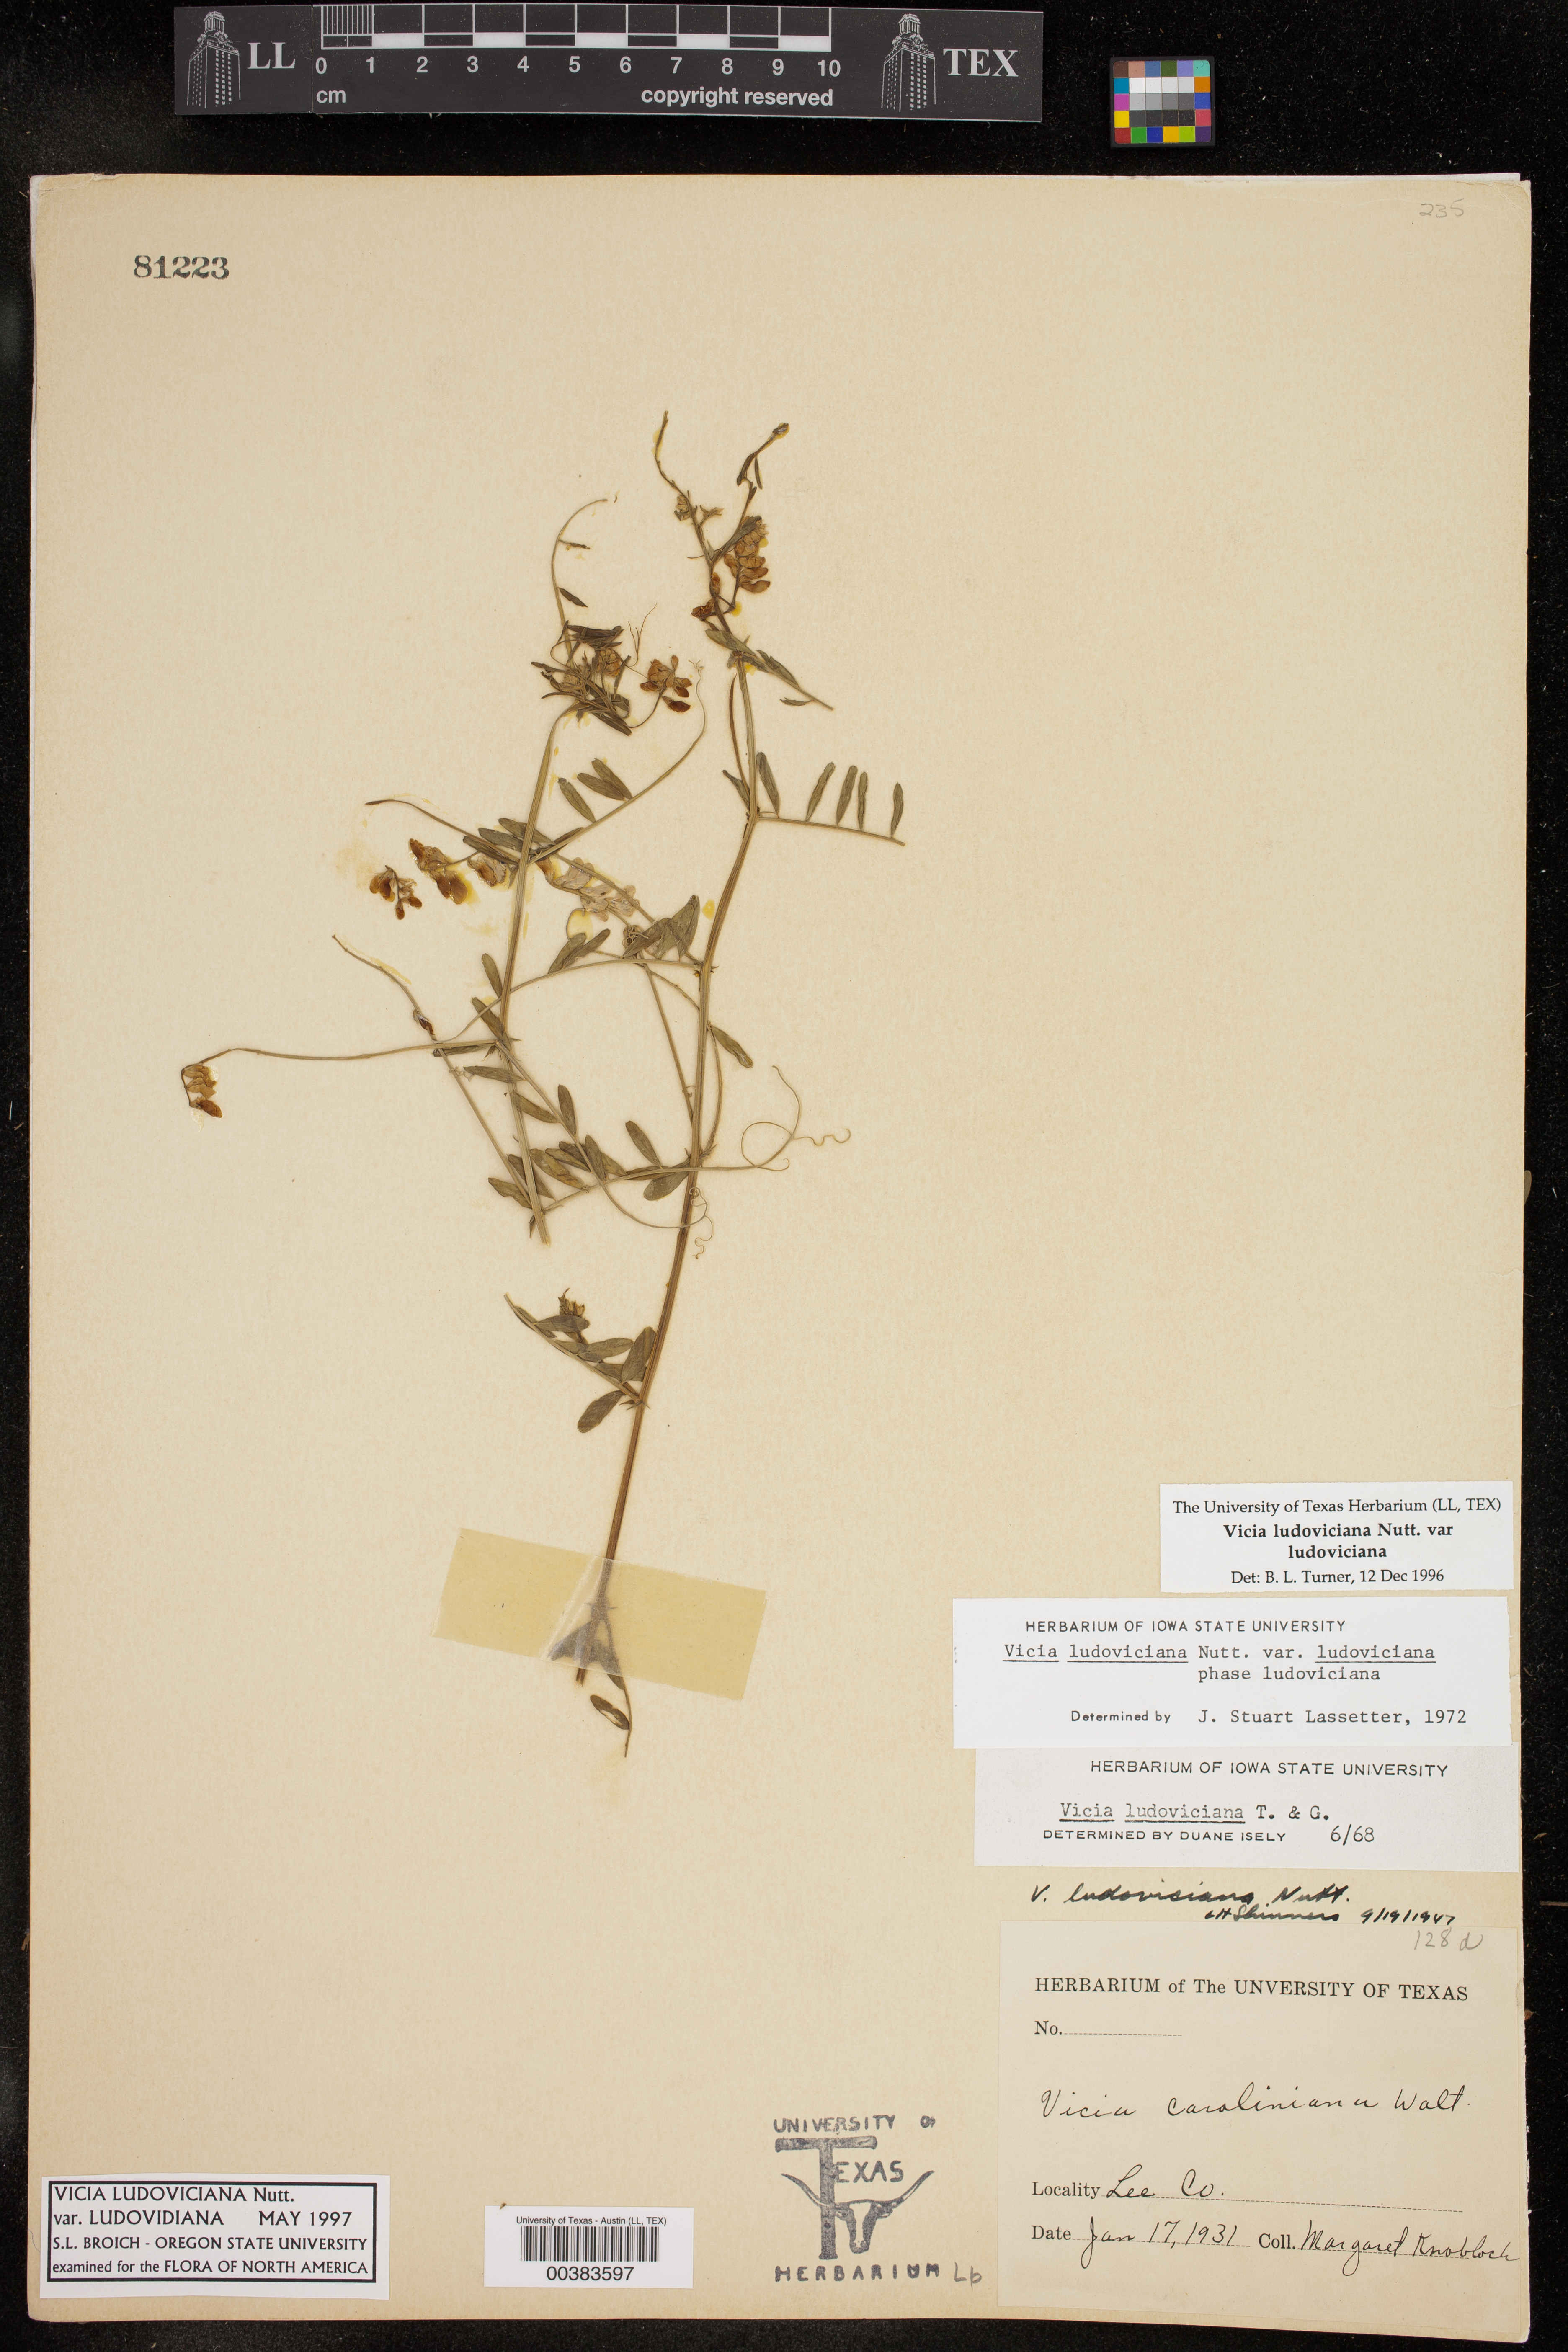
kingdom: Plantae
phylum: Tracheophyta
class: Magnoliopsida
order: Fabales
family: Fabaceae
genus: Vicia
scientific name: Vicia ludoviciana
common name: Louisiana vetch
